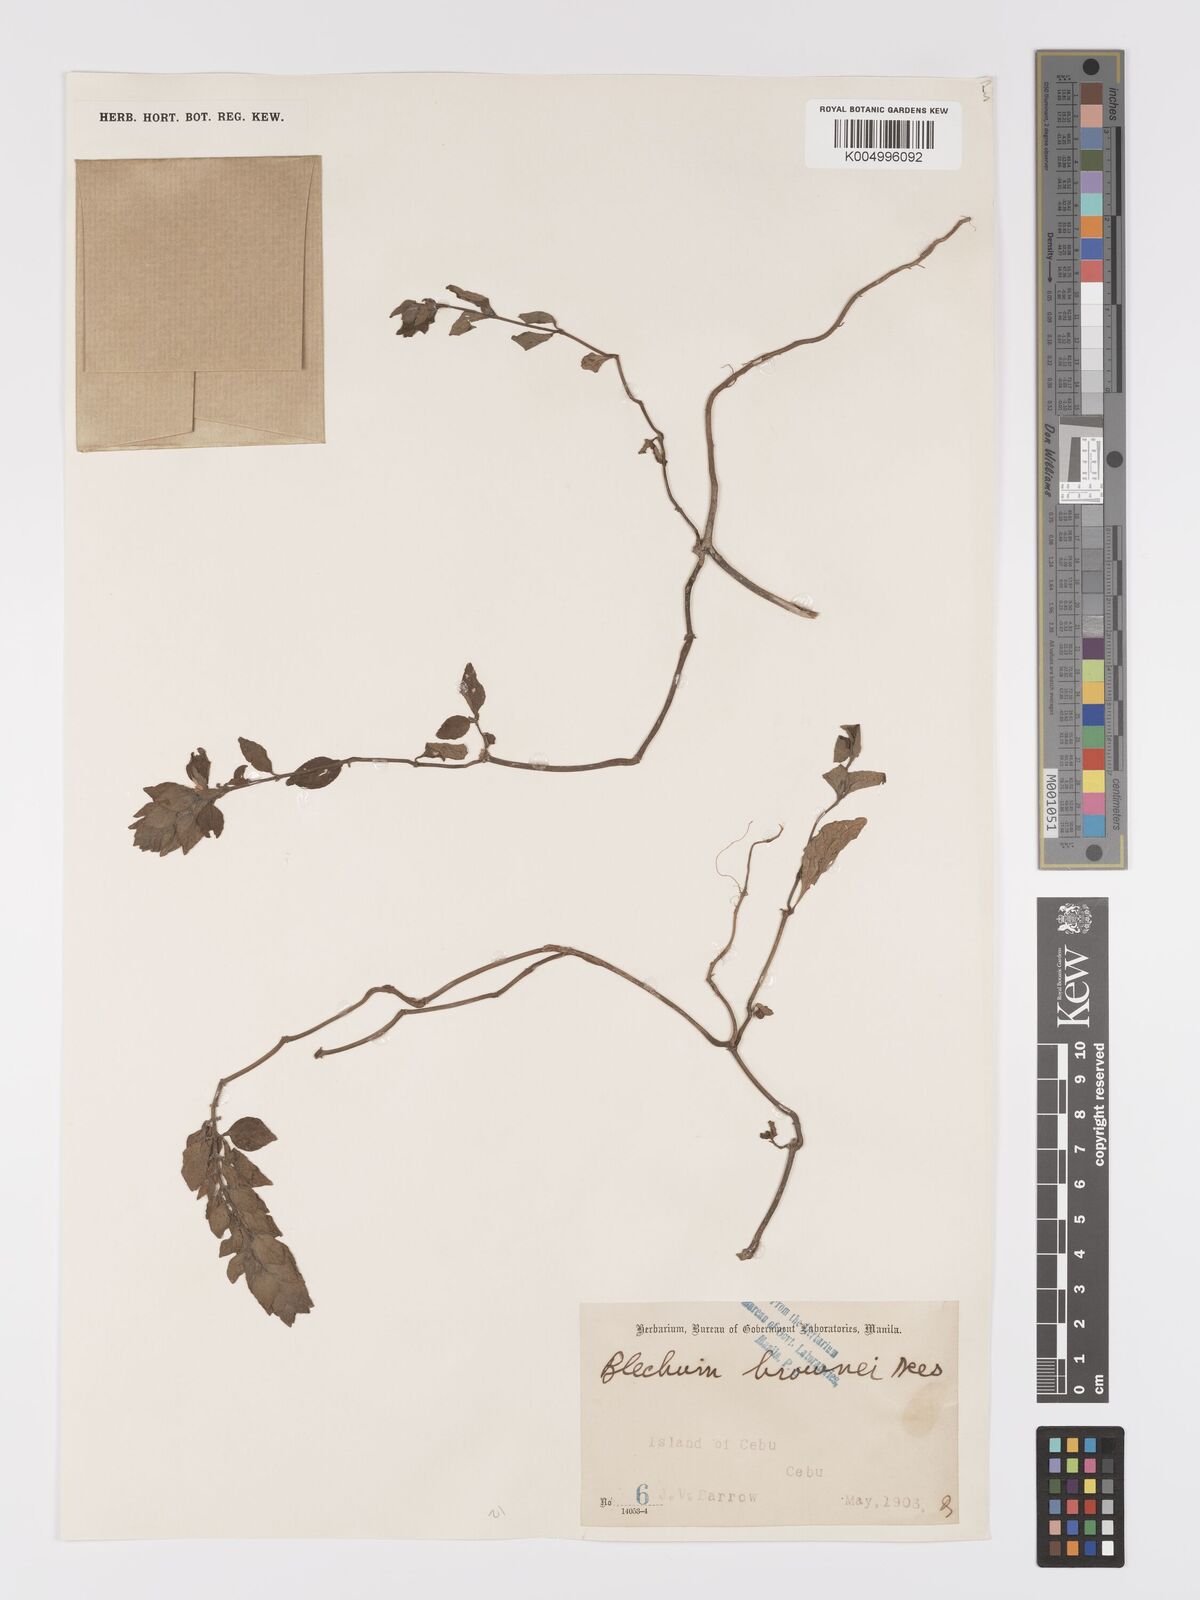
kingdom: Plantae
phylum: Tracheophyta
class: Magnoliopsida
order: Lamiales
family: Acanthaceae
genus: Ruellia
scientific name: Ruellia blechum
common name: Browne's blechum
